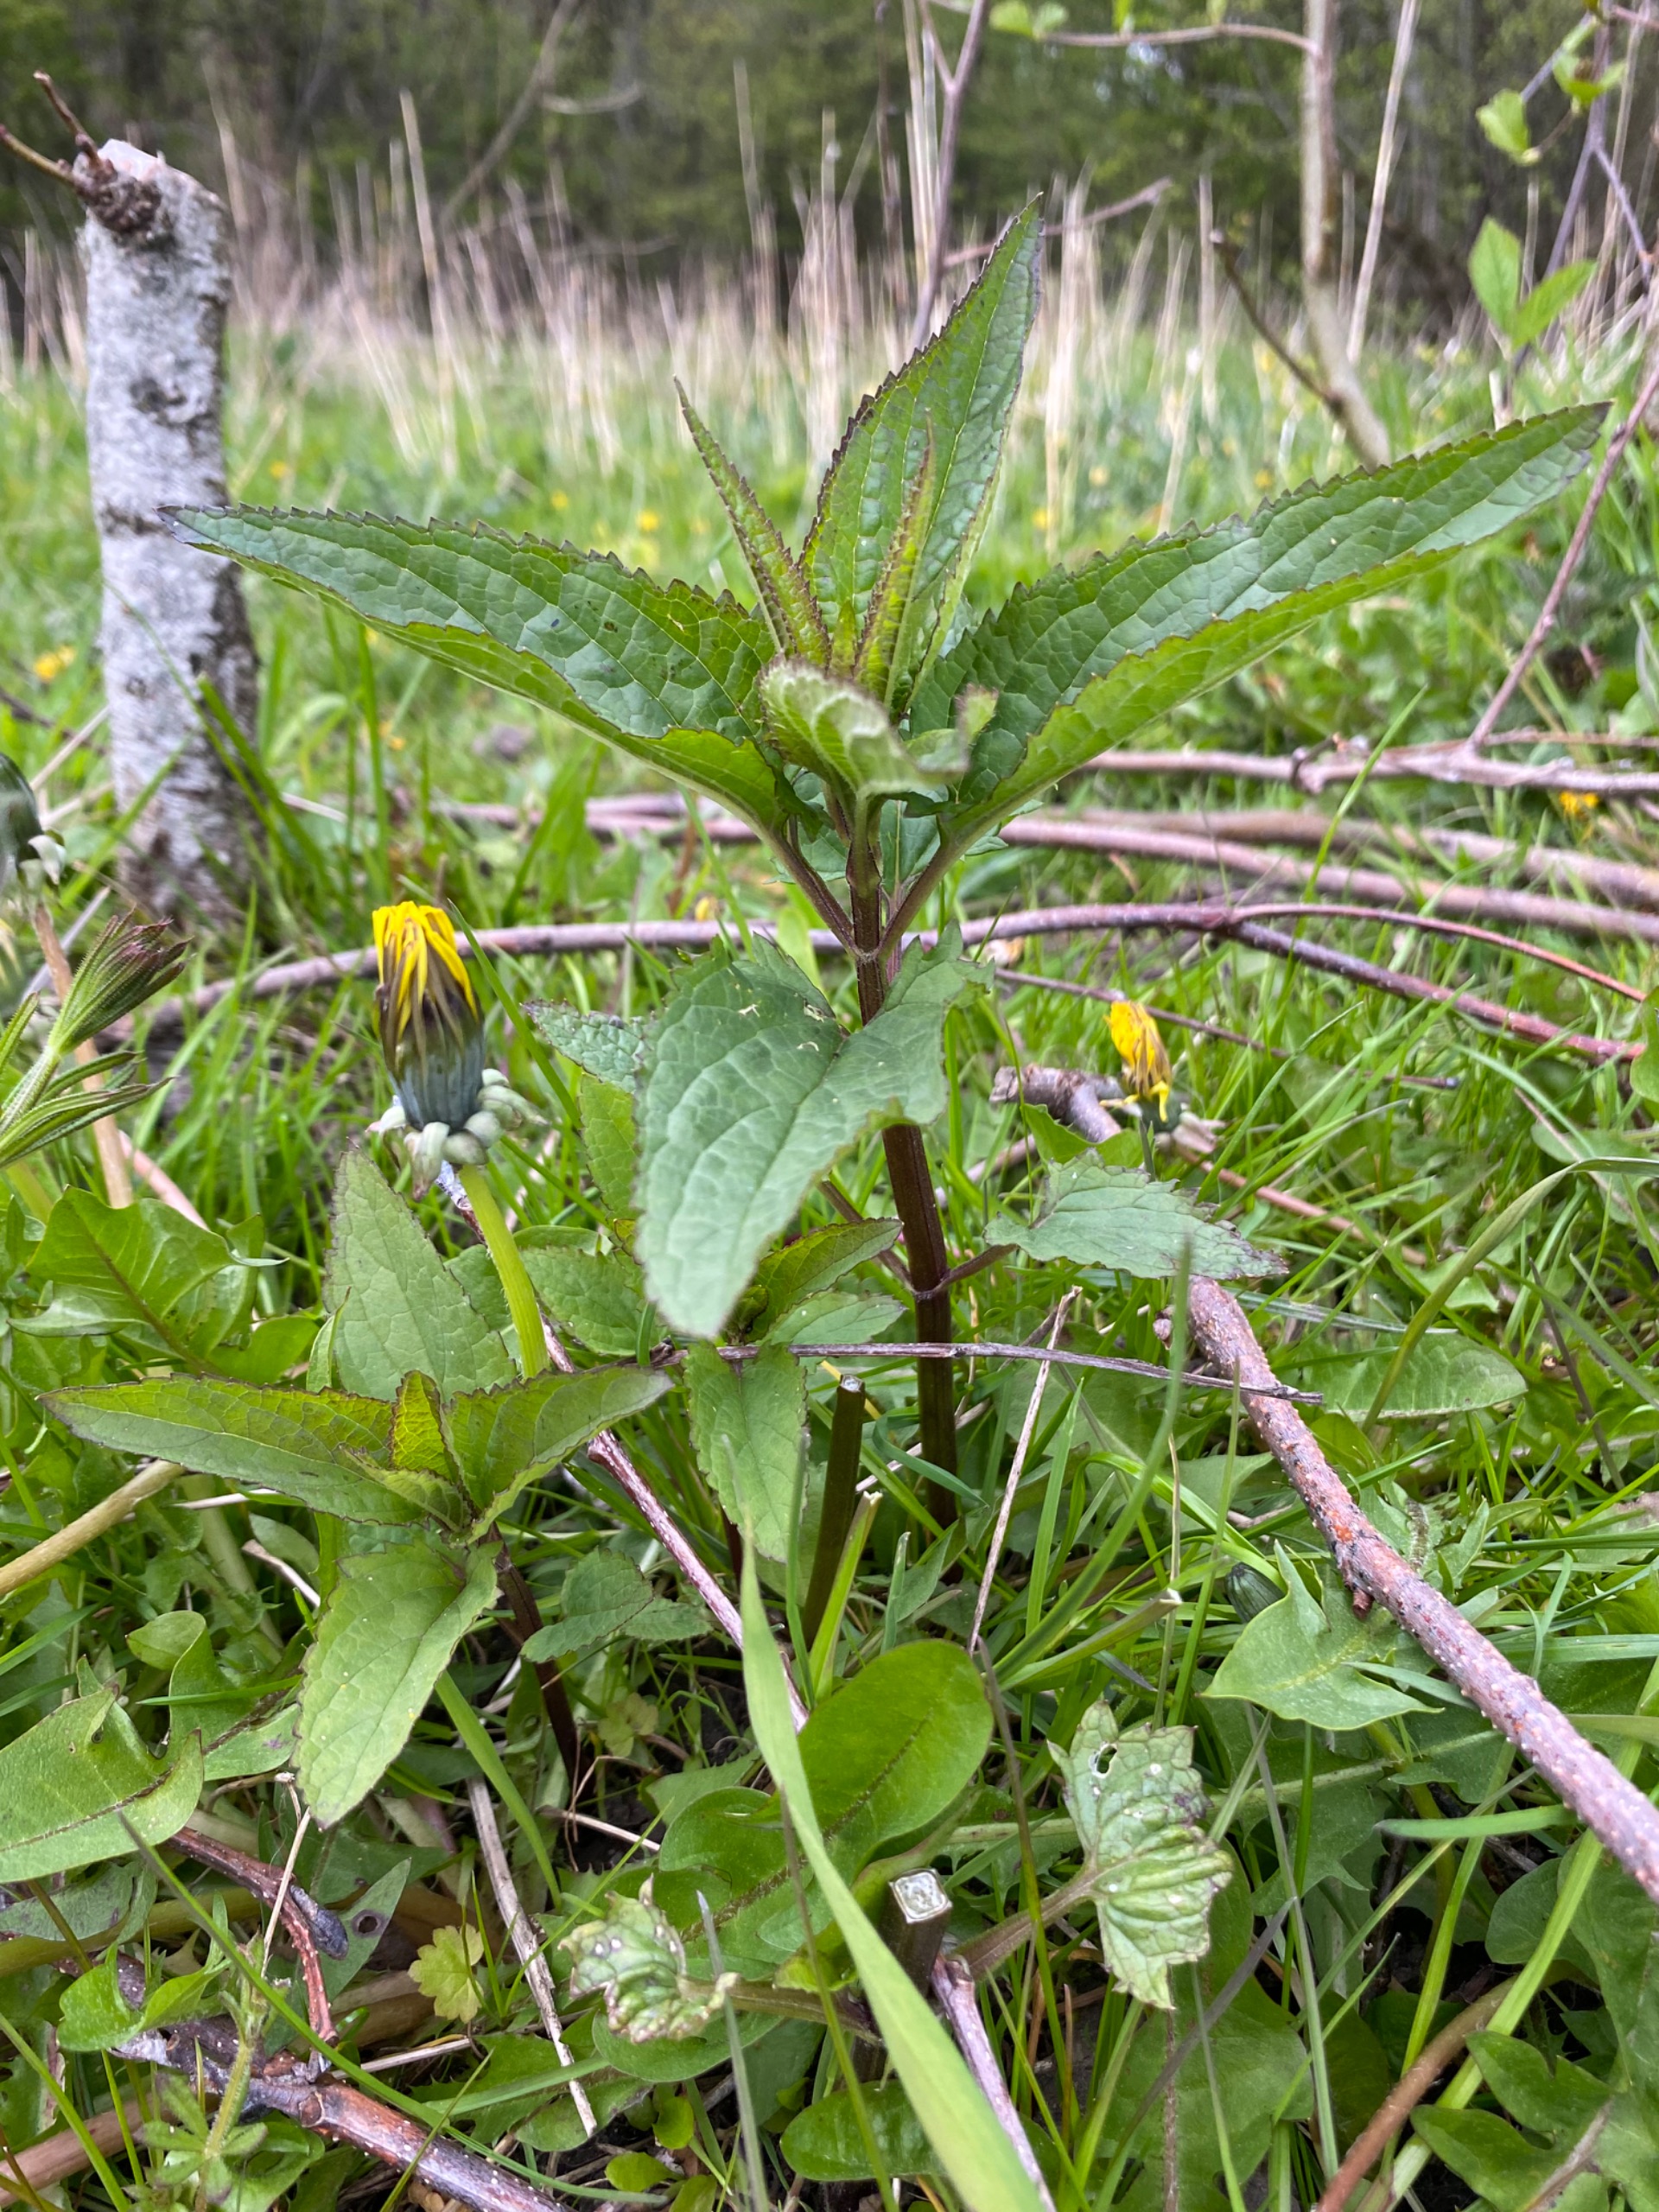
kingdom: Plantae
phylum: Tracheophyta
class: Magnoliopsida
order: Lamiales
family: Scrophulariaceae
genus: Scrophularia
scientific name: Scrophularia nodosa
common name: Knoldet brunrod
